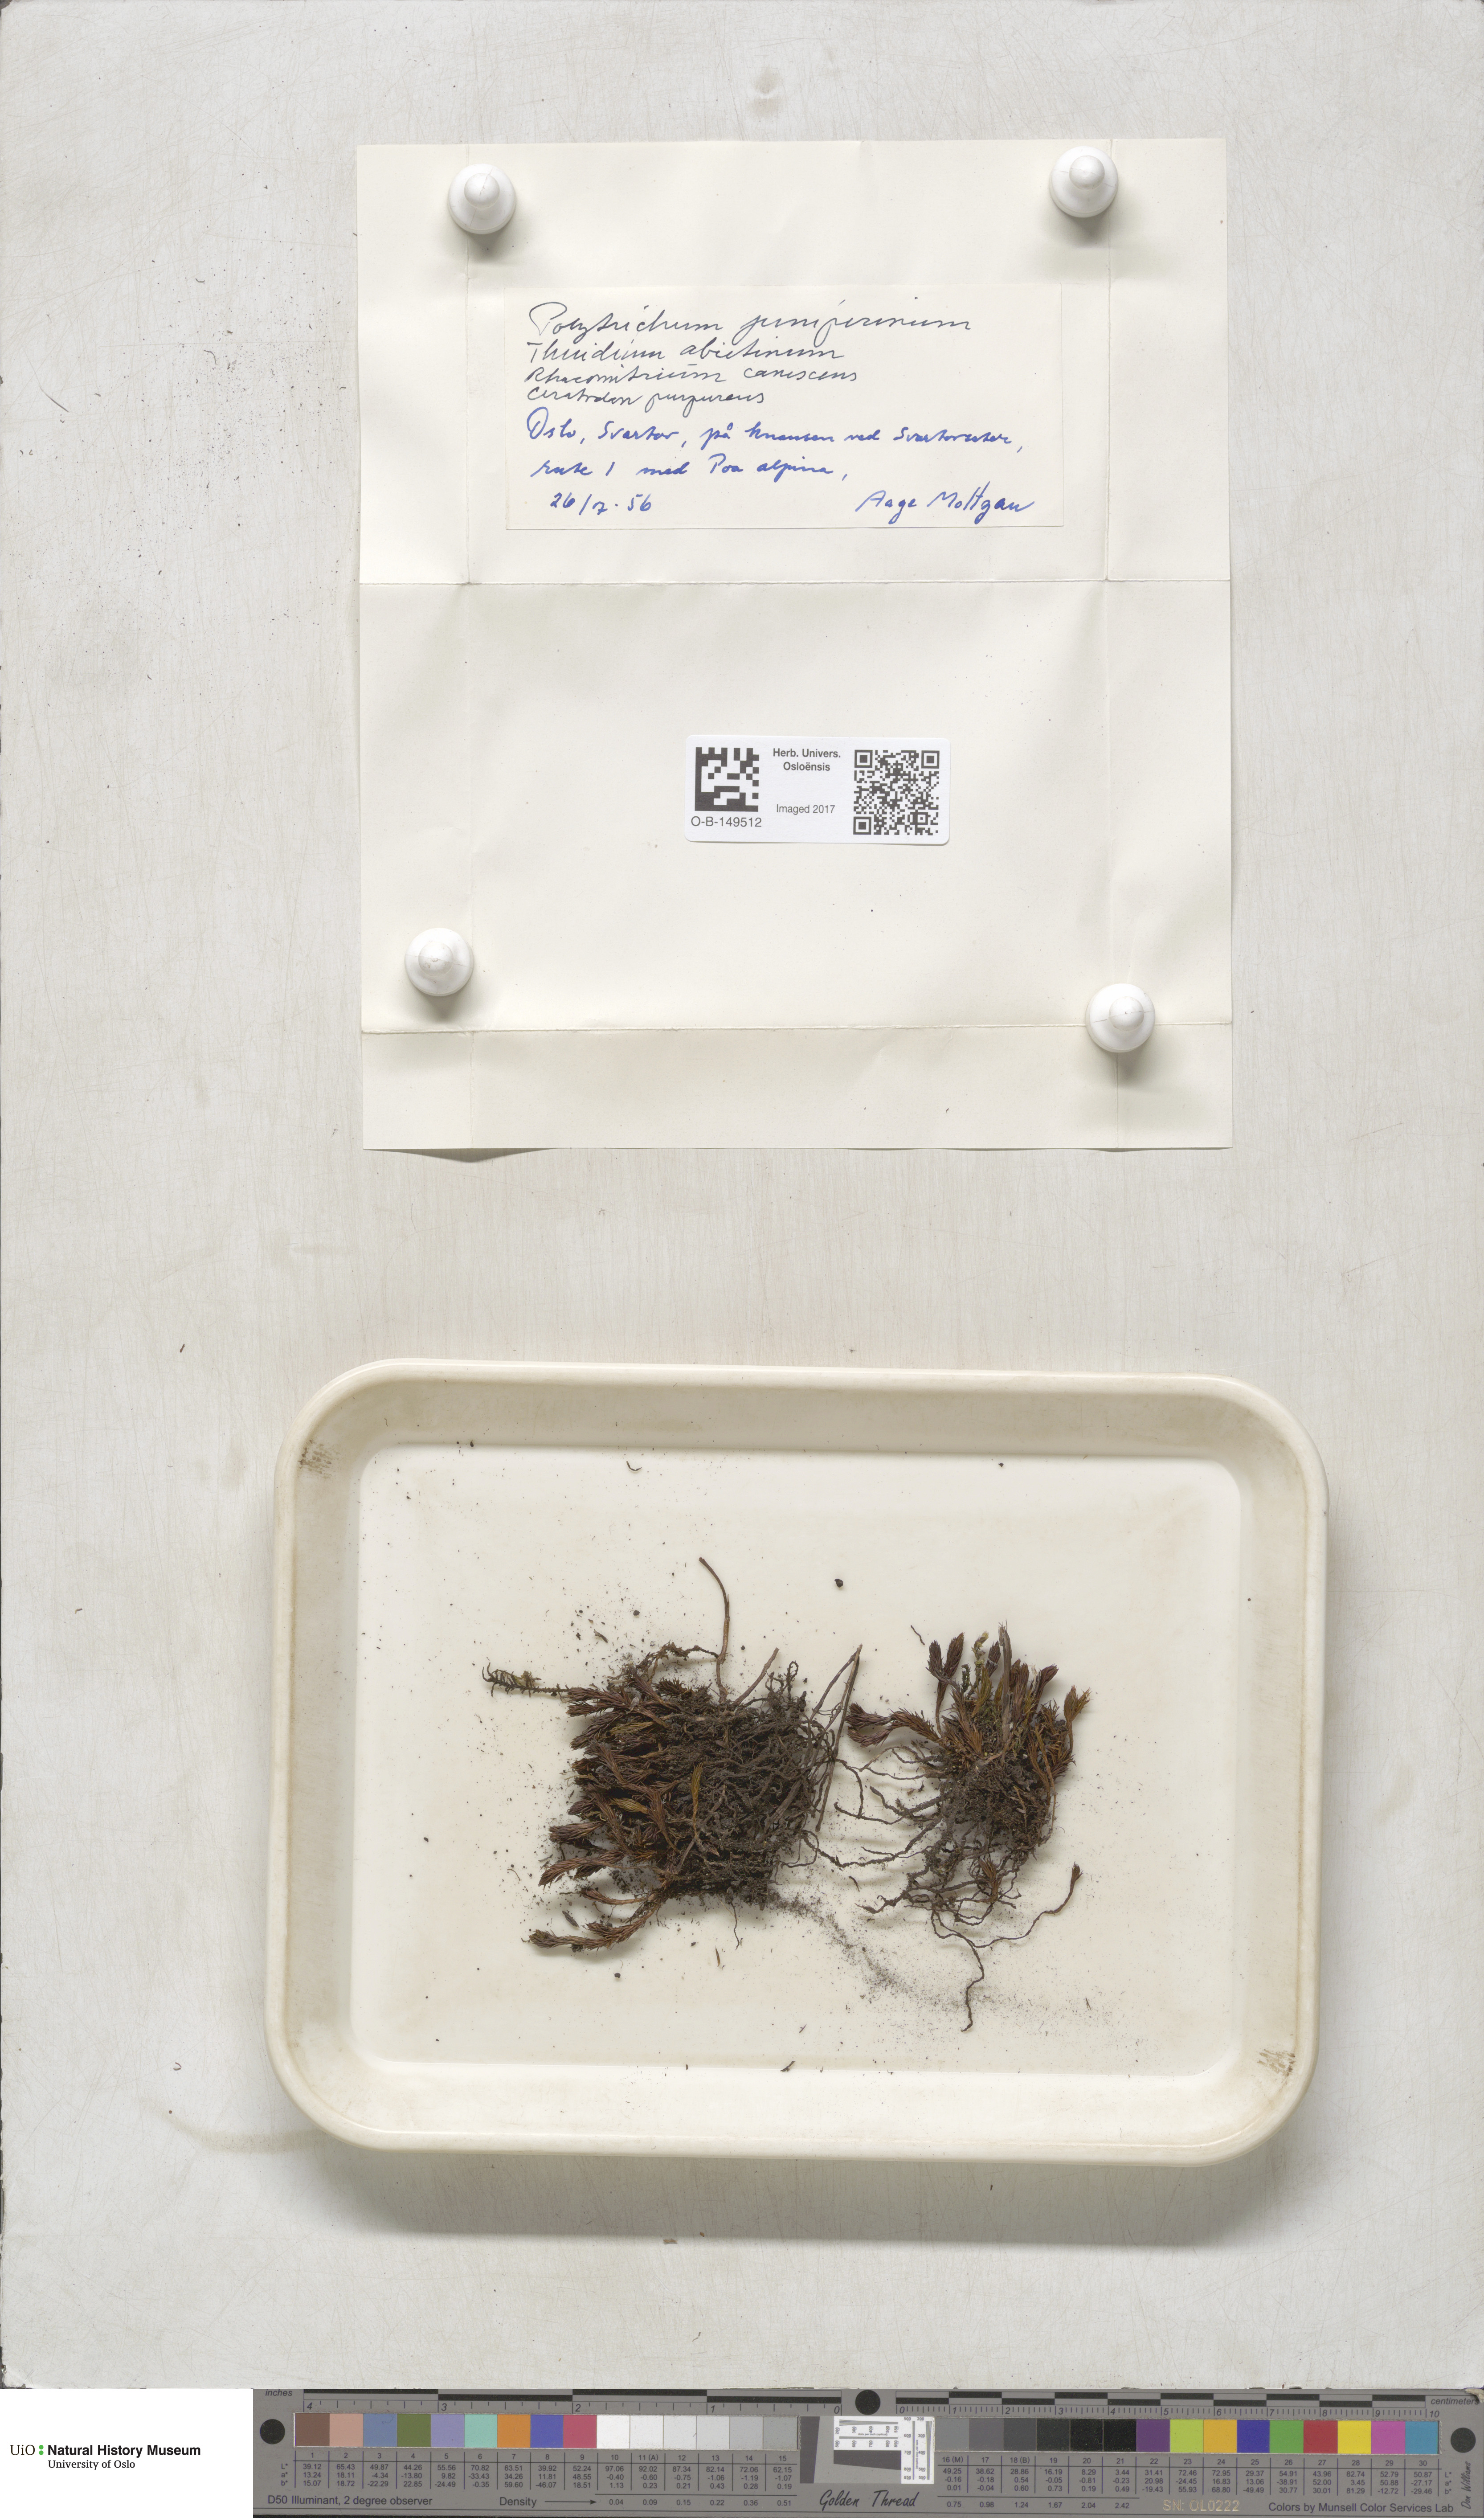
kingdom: Plantae
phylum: Bryophyta
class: Polytrichopsida
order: Polytrichales
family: Polytrichaceae
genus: Polytrichum
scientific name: Polytrichum juniperinum
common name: Juniper haircap moss
